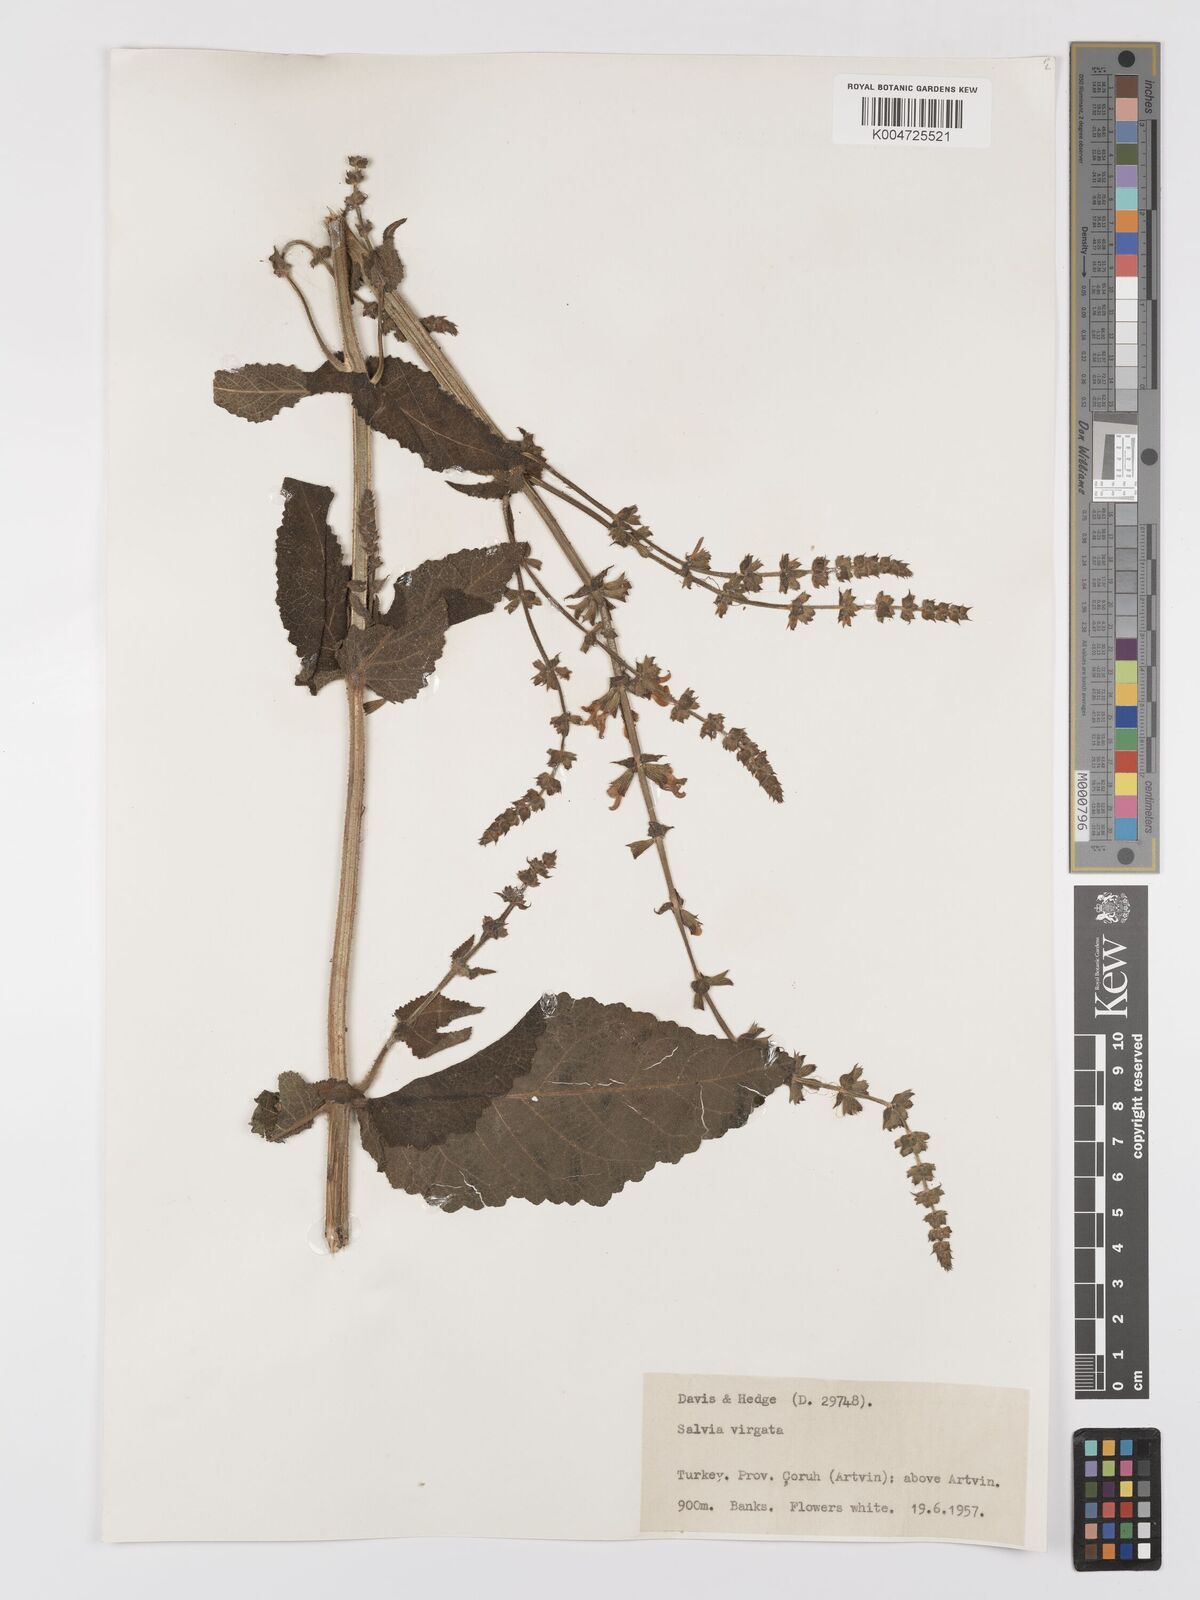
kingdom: Plantae
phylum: Tracheophyta
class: Magnoliopsida
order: Lamiales
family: Lamiaceae
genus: Salvia
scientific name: Salvia
